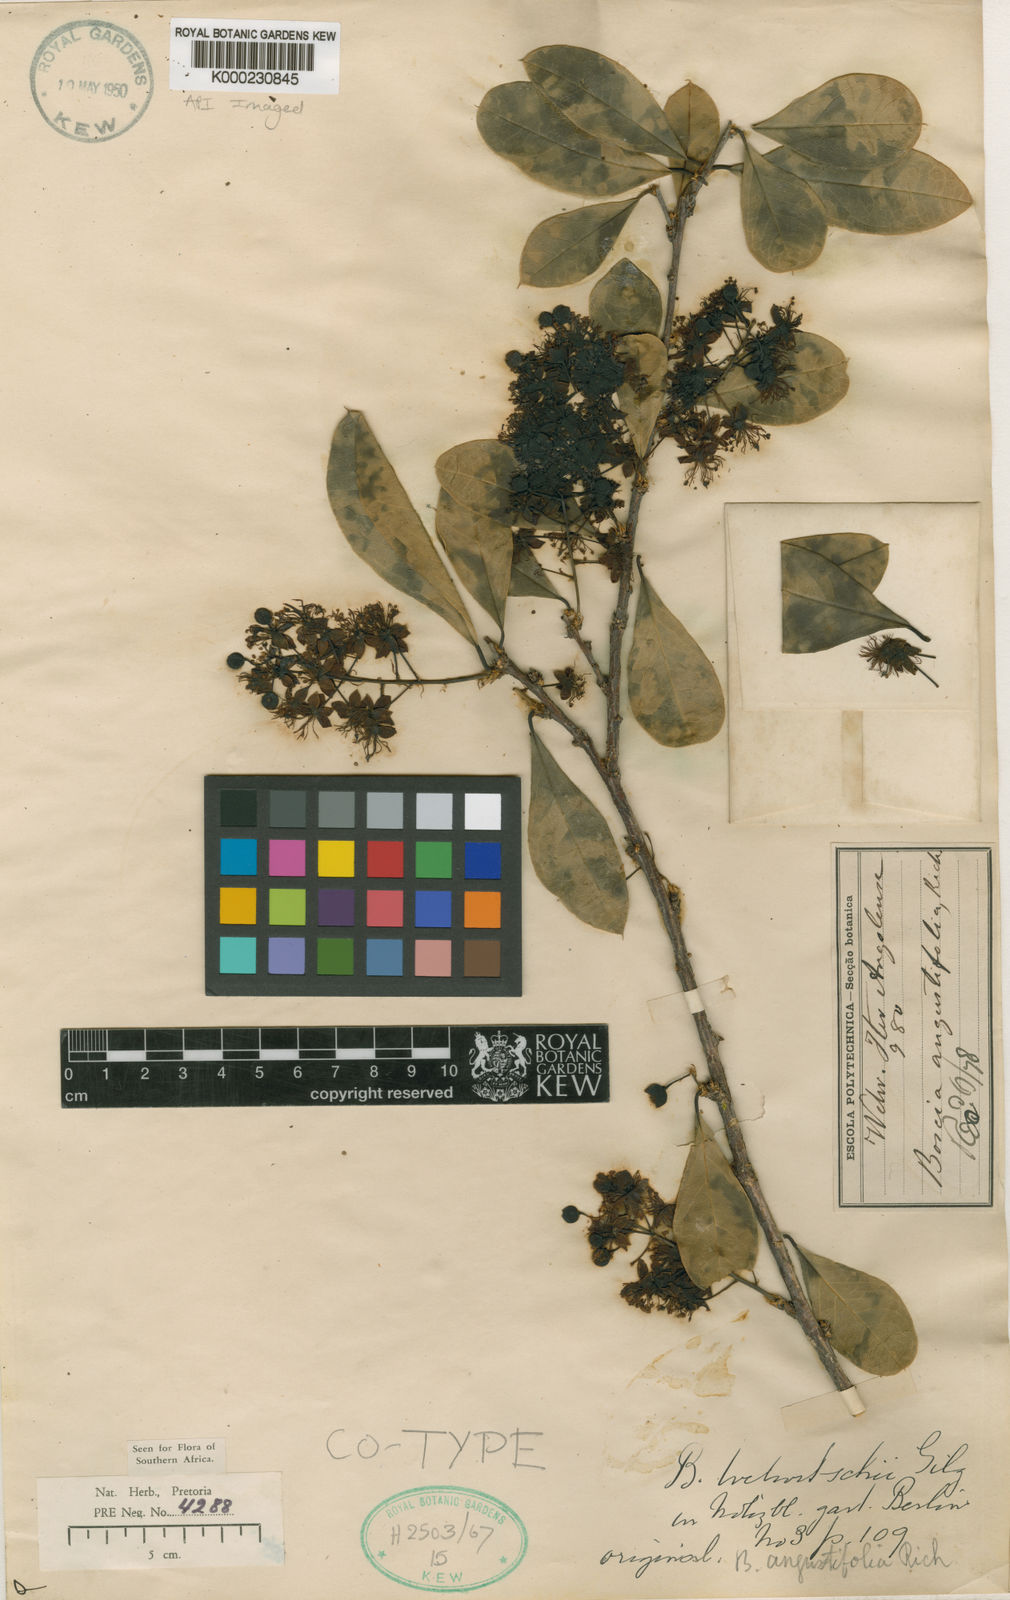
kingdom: Plantae
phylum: Tracheophyta
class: Magnoliopsida
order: Brassicales
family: Capparaceae
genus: Boscia
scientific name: Boscia welwitschii
